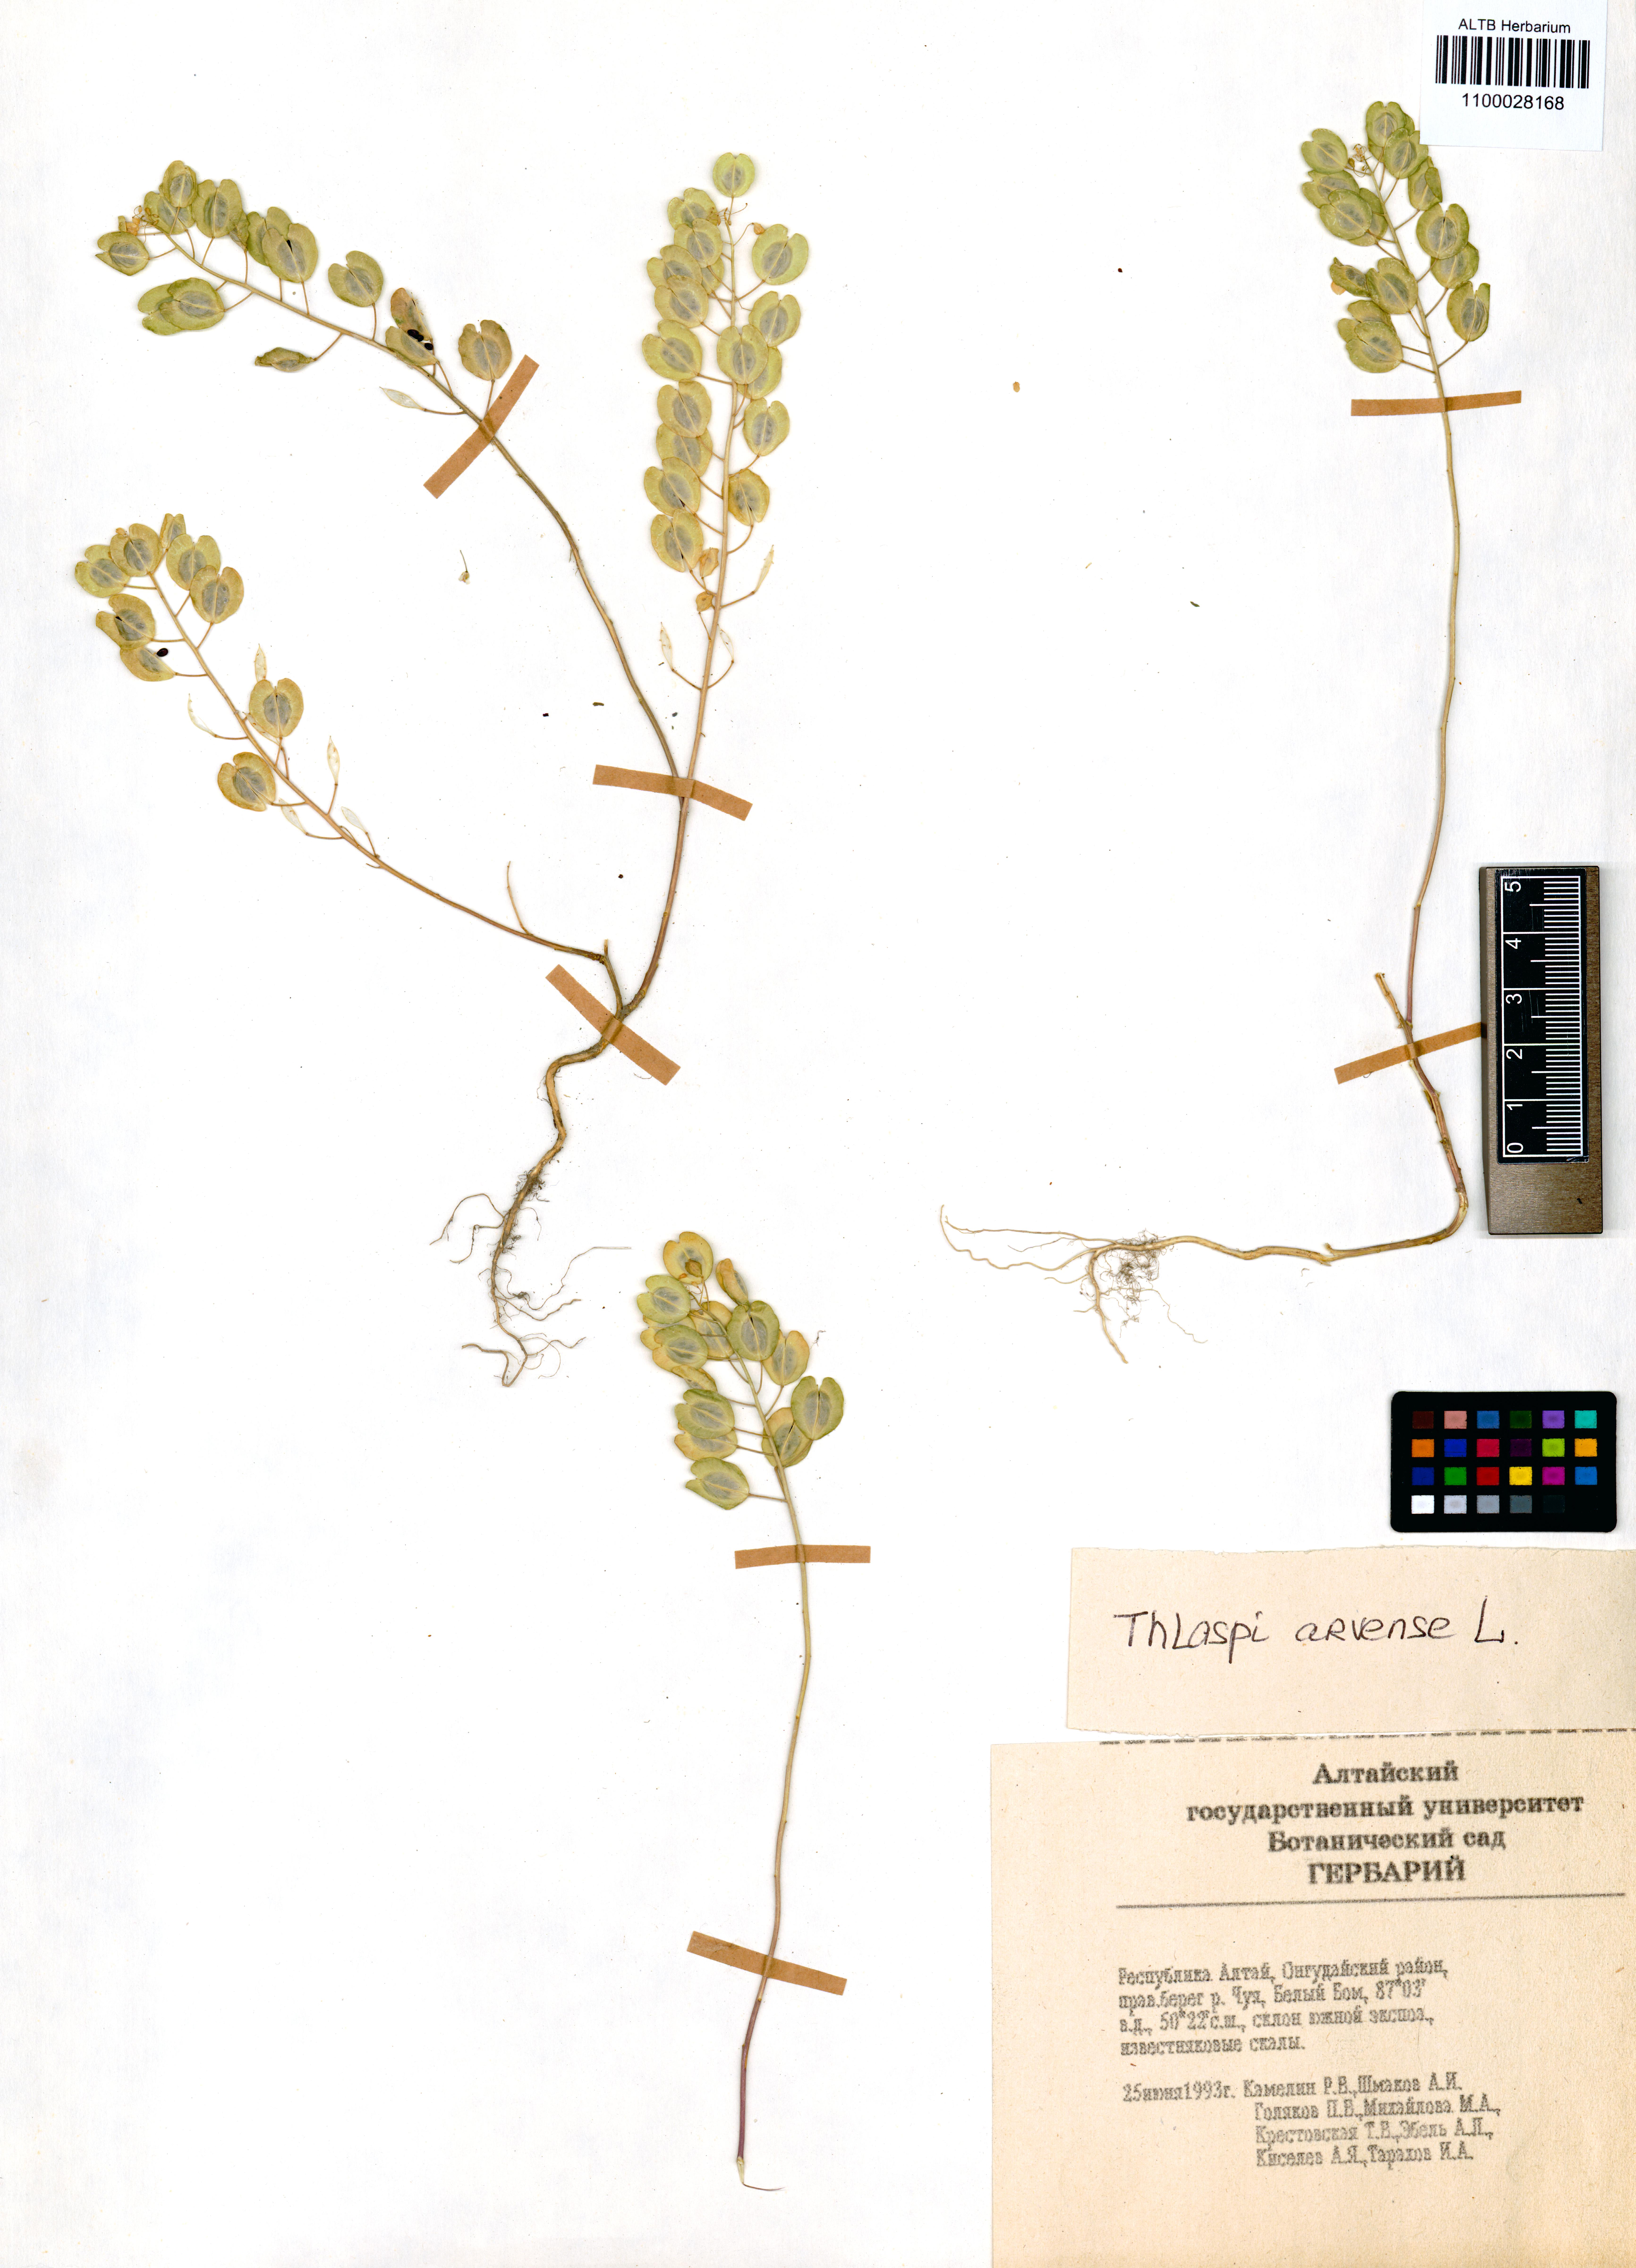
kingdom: Plantae
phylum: Tracheophyta
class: Magnoliopsida
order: Brassicales
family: Brassicaceae
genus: Thlaspi
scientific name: Thlaspi arvense
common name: Field pennycress
